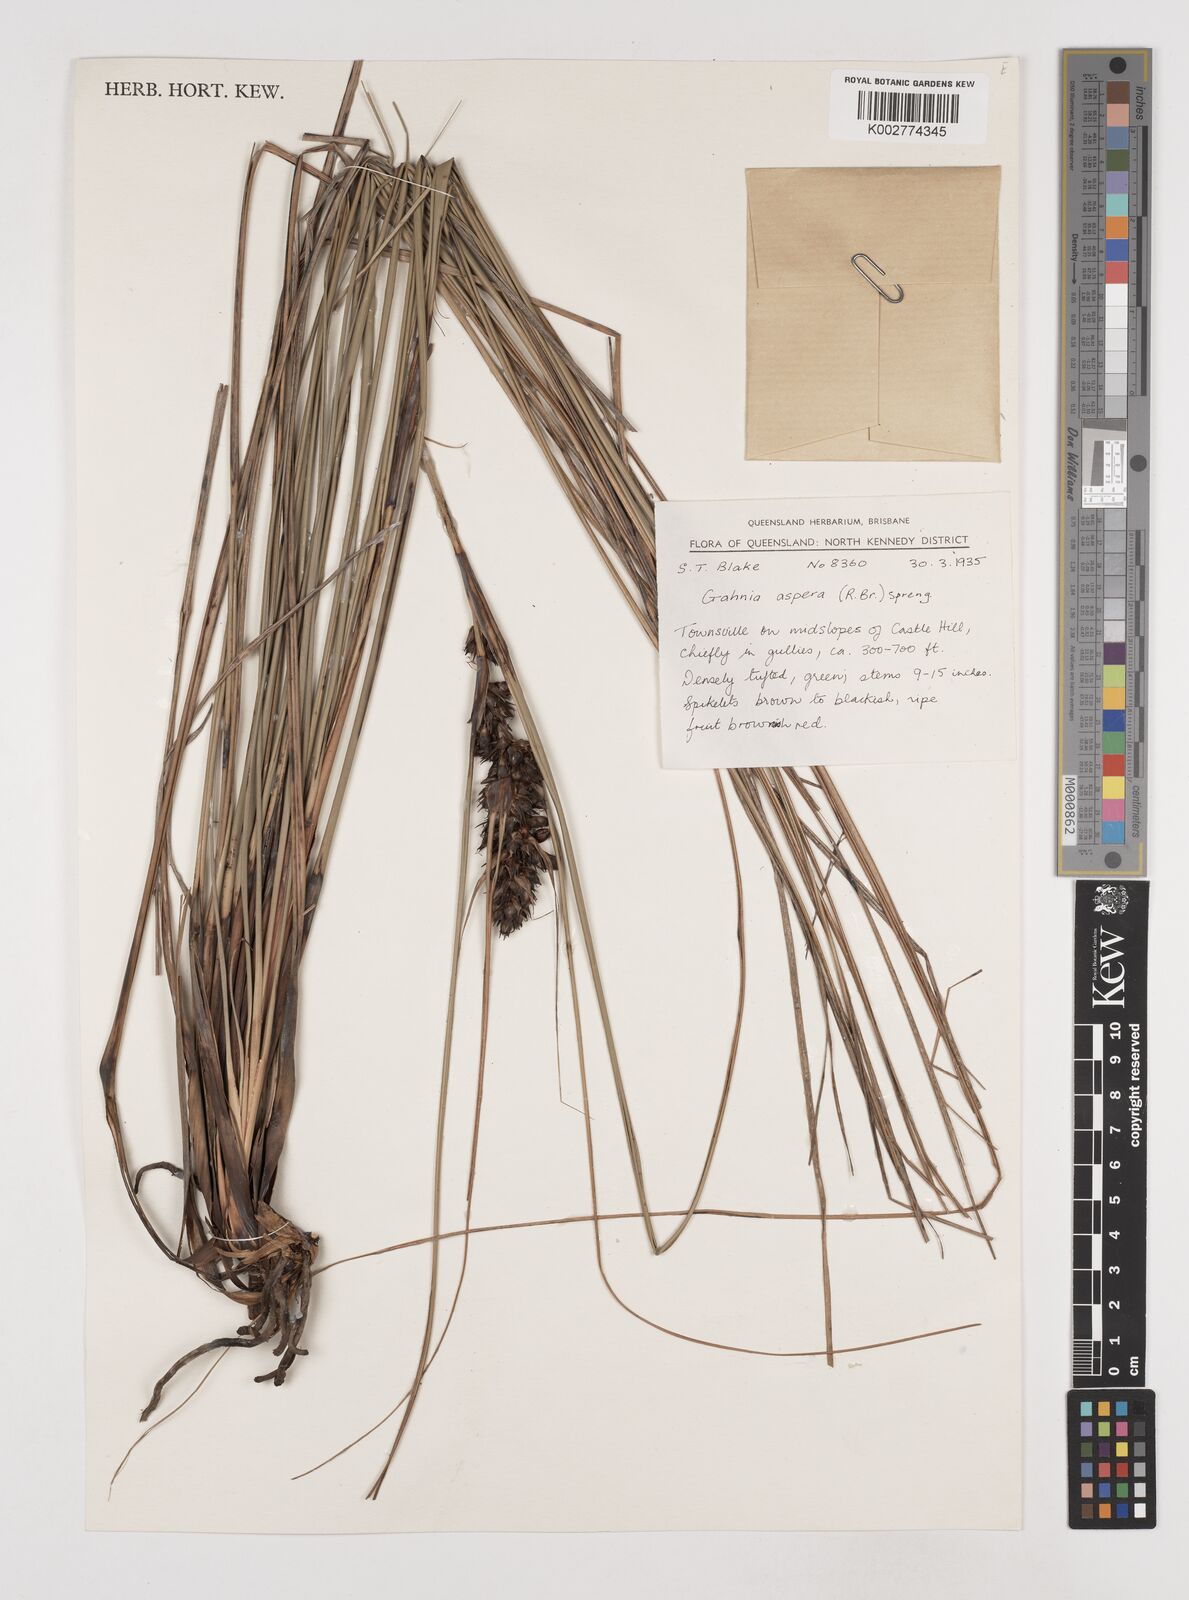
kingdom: Plantae
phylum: Tracheophyta
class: Liliopsida
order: Poales
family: Cyperaceae
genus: Gahnia
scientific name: Gahnia aspera
